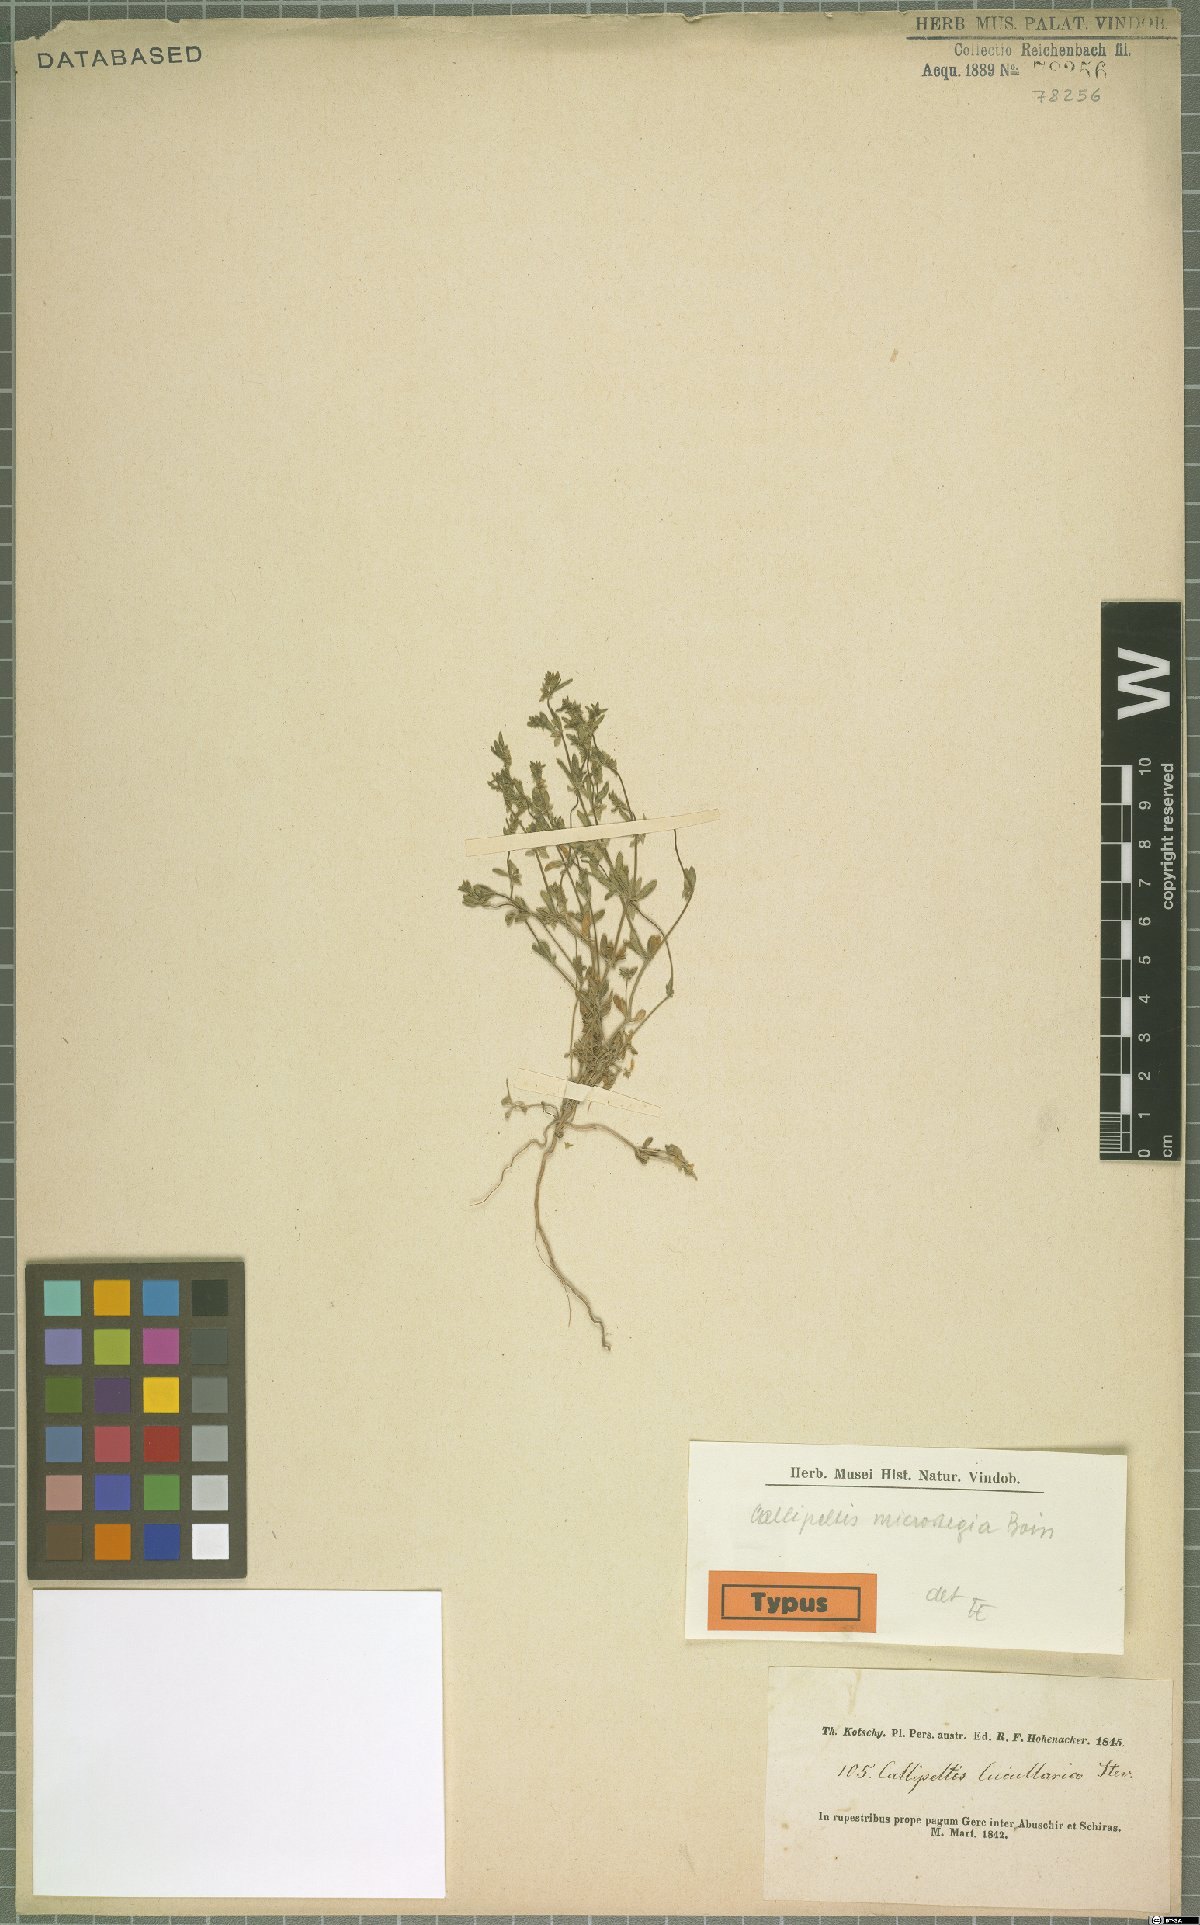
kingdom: Plantae
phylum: Tracheophyta
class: Magnoliopsida
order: Gentianales
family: Rubiaceae
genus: Callipeltis
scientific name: Callipeltis microstegia
